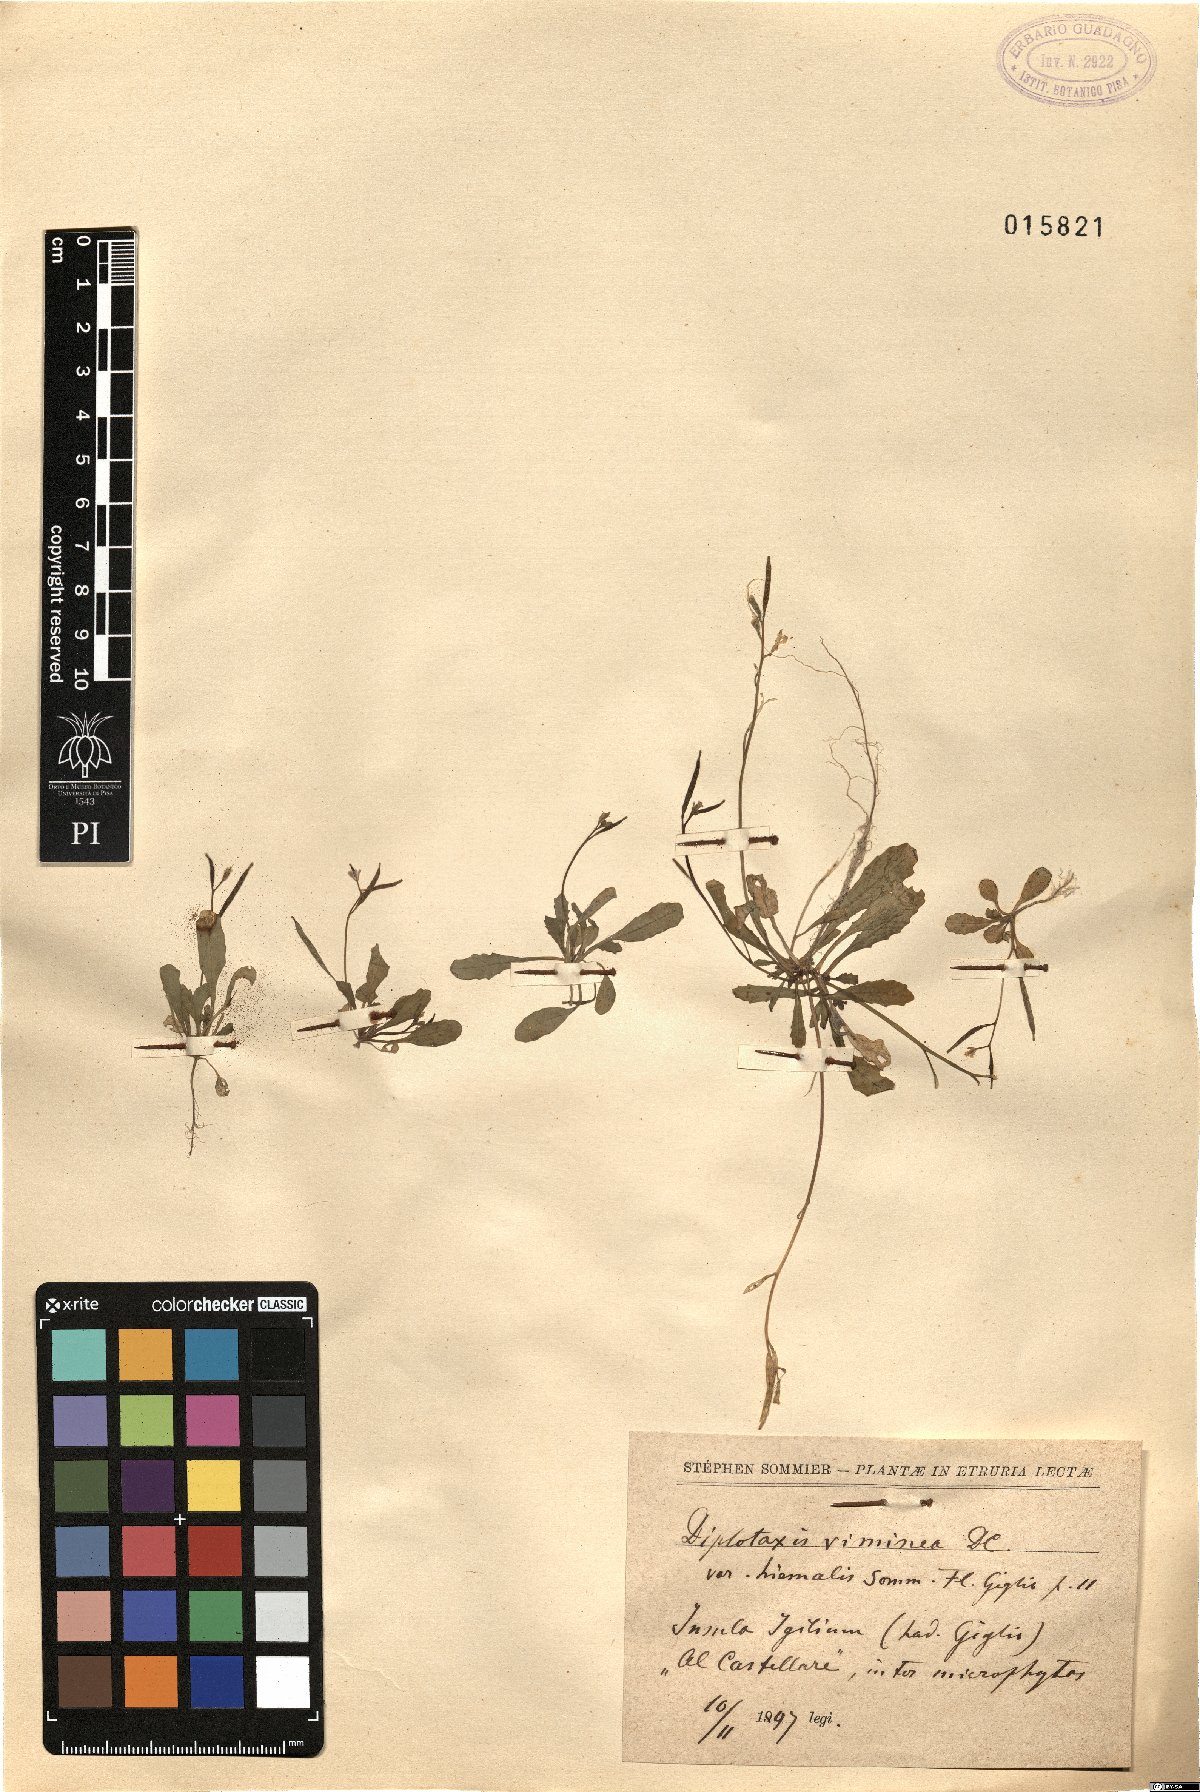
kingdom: Plantae
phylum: Tracheophyta
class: Magnoliopsida
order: Brassicales
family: Brassicaceae
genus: Diplotaxis
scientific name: Diplotaxis viminea
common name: Vineyard wall rocket
